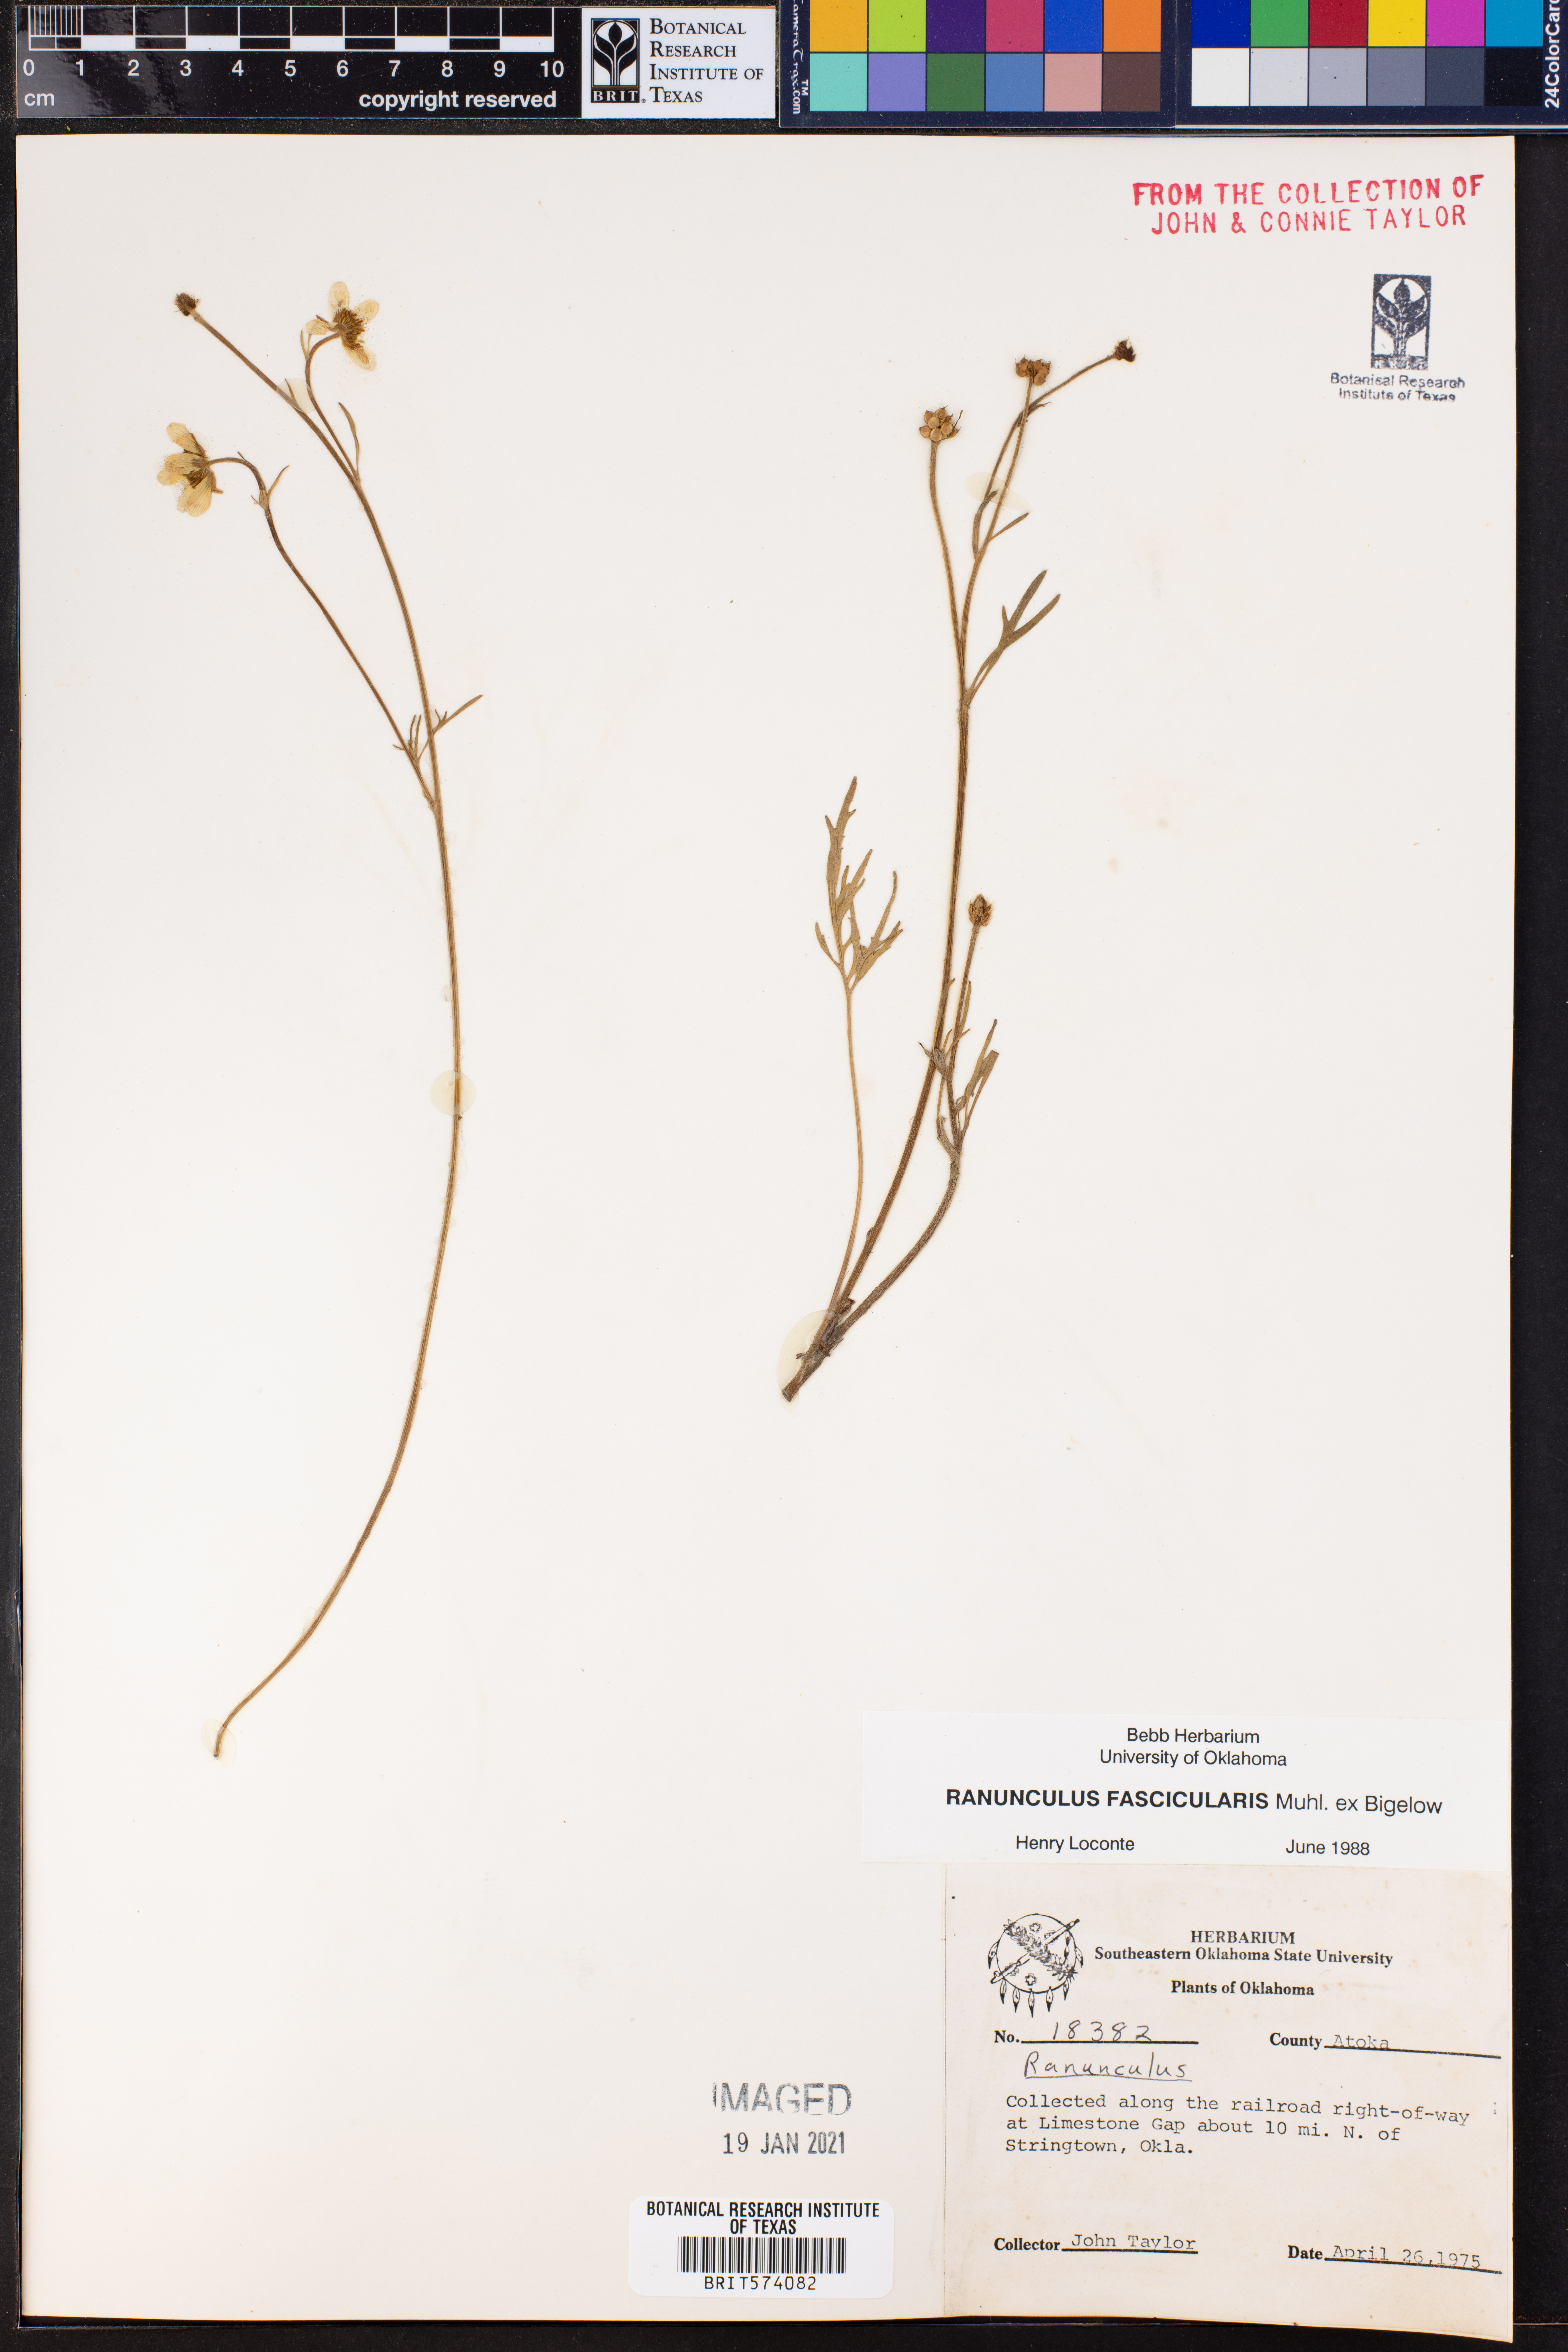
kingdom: Plantae
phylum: Tracheophyta
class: Magnoliopsida
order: Ranunculales
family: Ranunculaceae
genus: Ranunculus
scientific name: Ranunculus fascicularis
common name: Early buttercup
